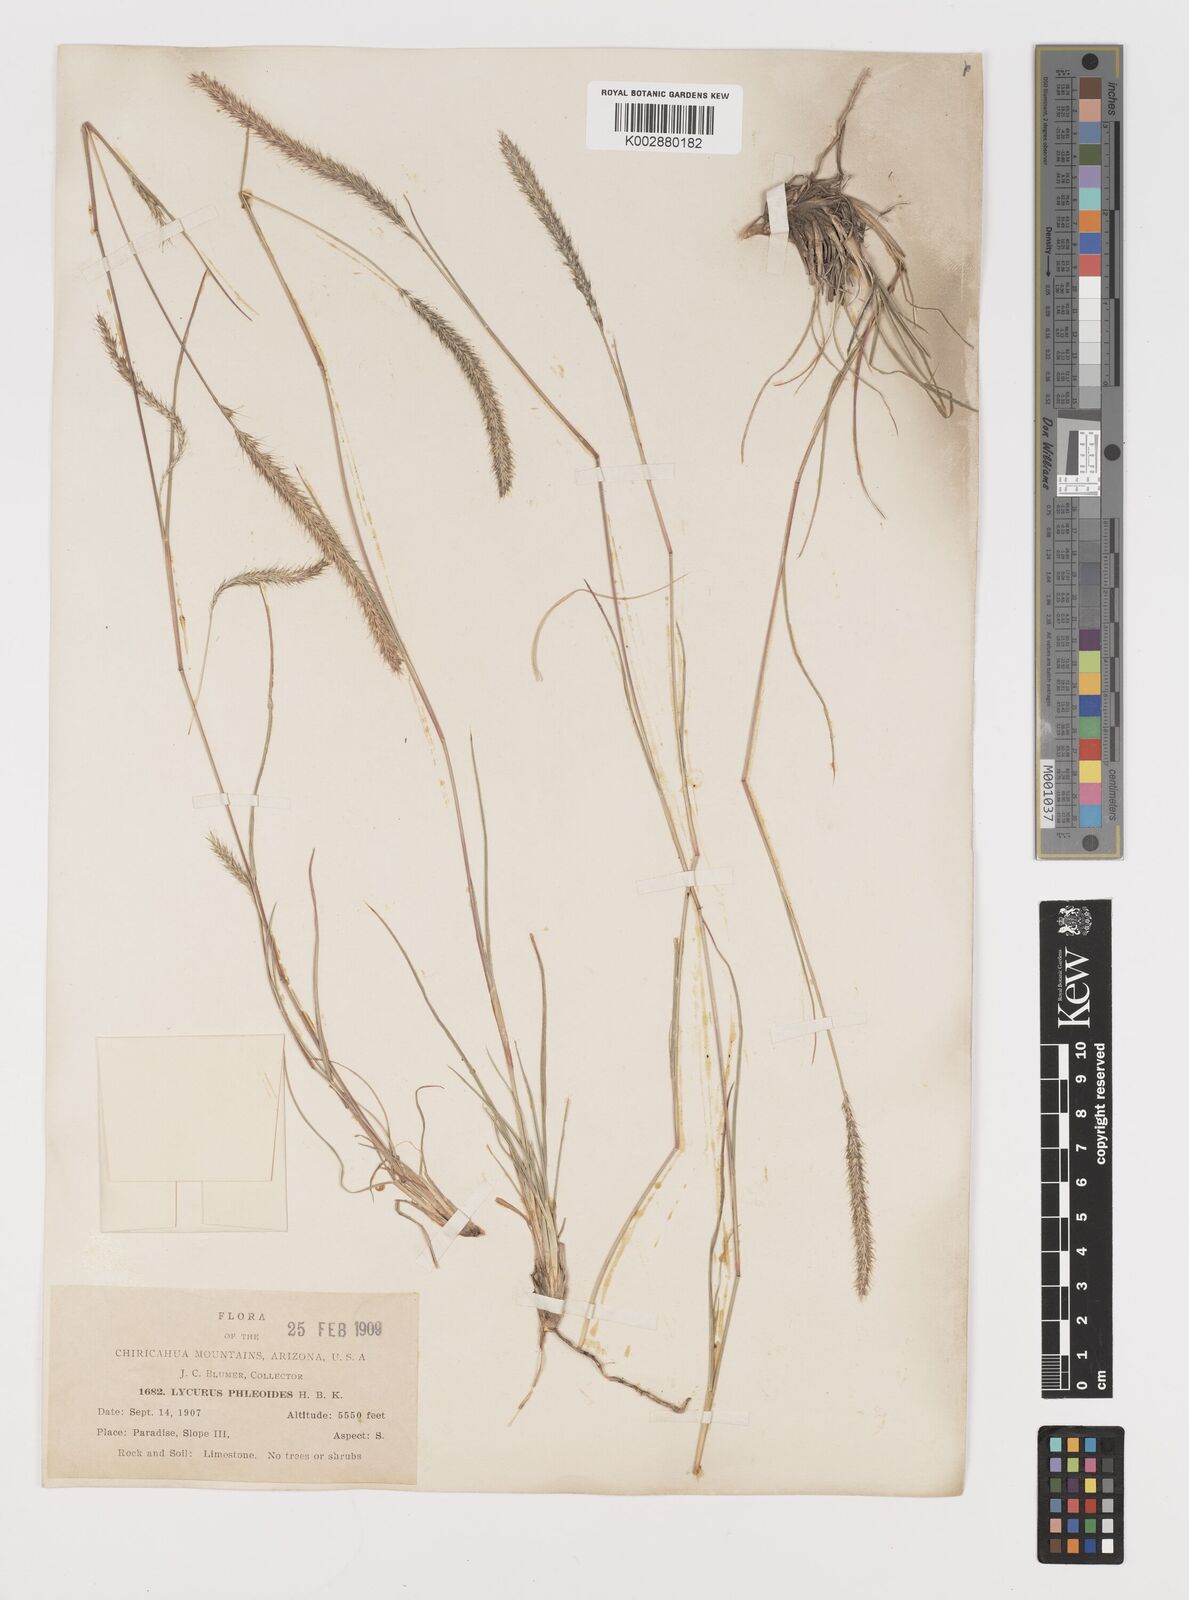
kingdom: Plantae
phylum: Tracheophyta
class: Liliopsida
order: Poales
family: Poaceae
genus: Muhlenbergia
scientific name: Muhlenbergia alopecuroides
